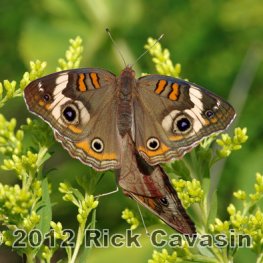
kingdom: Animalia
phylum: Arthropoda
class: Insecta
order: Lepidoptera
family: Nymphalidae
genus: Junonia
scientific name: Junonia coenia
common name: Common Buckeye
